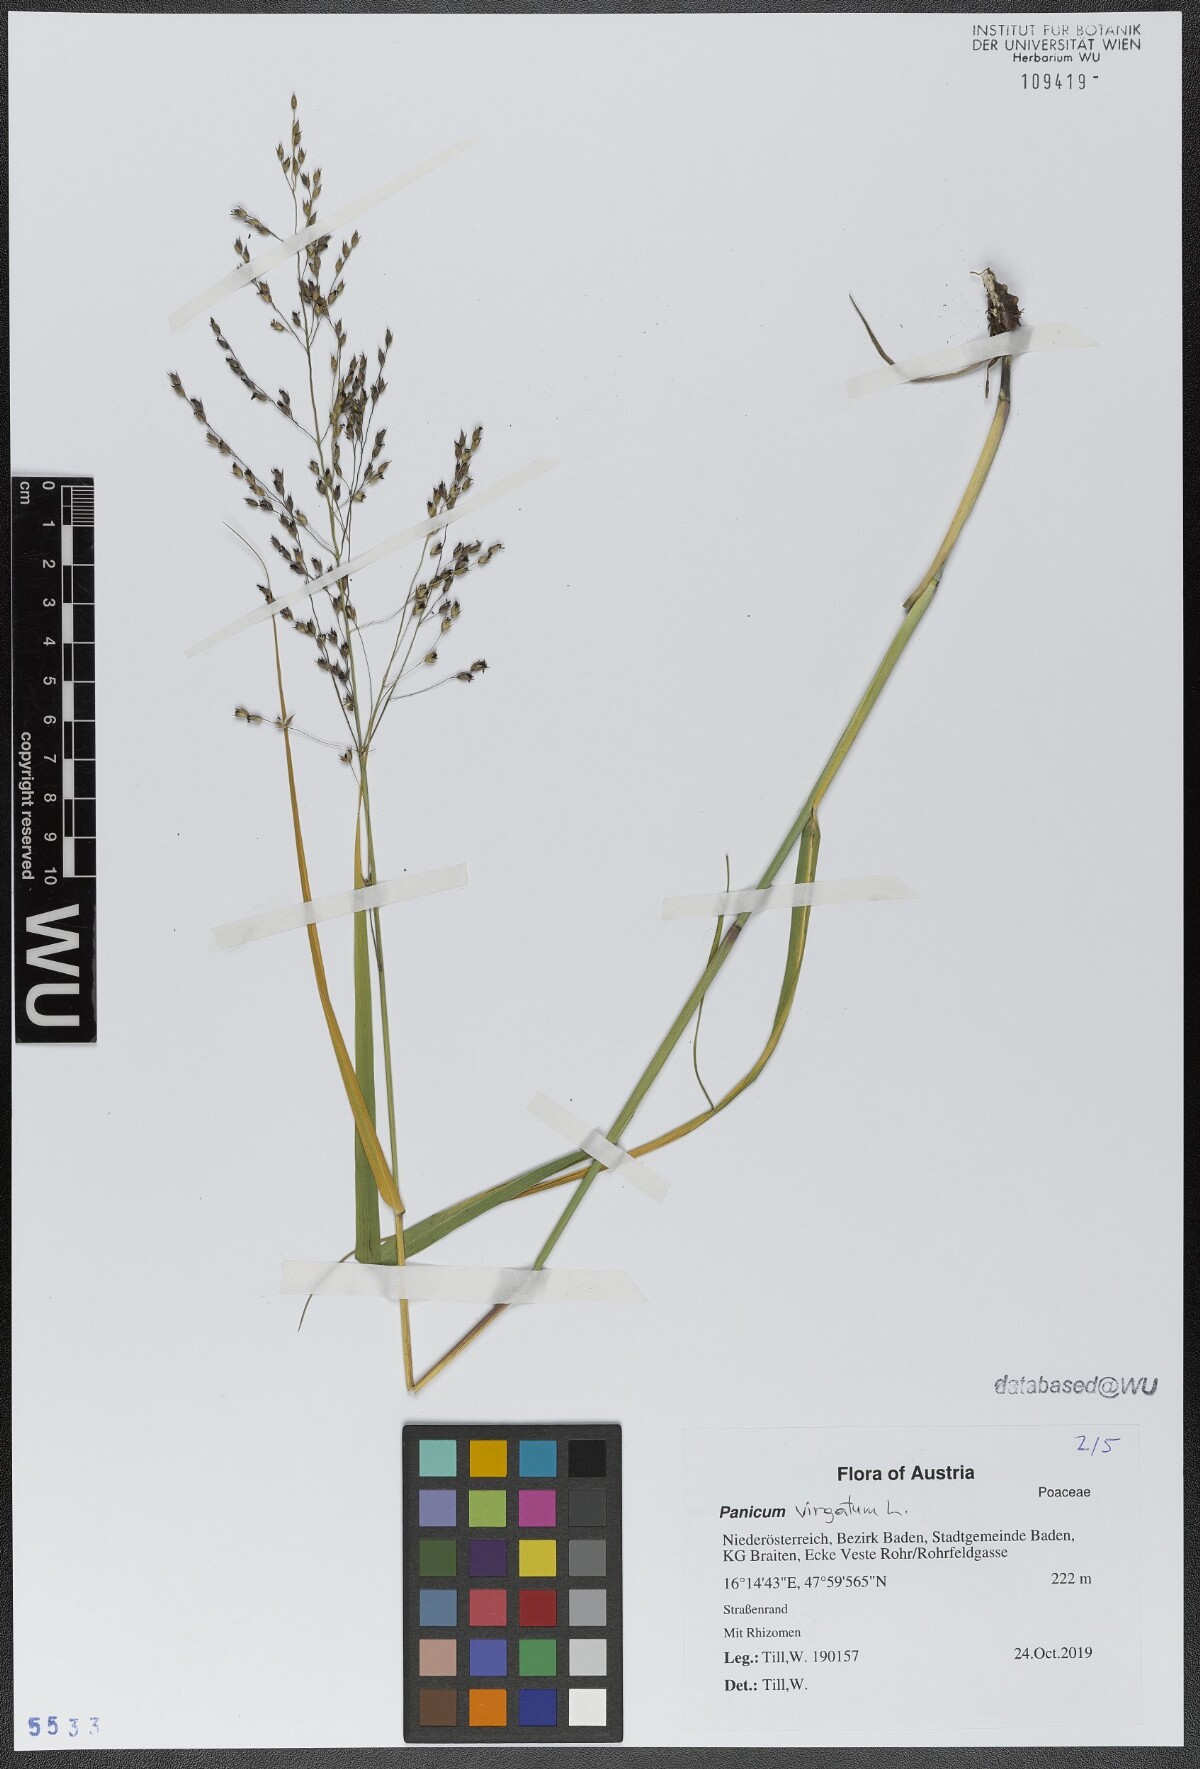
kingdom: Plantae
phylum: Tracheophyta
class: Liliopsida
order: Poales
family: Poaceae
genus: Panicum
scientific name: Panicum virgatum
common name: Switchgrass
